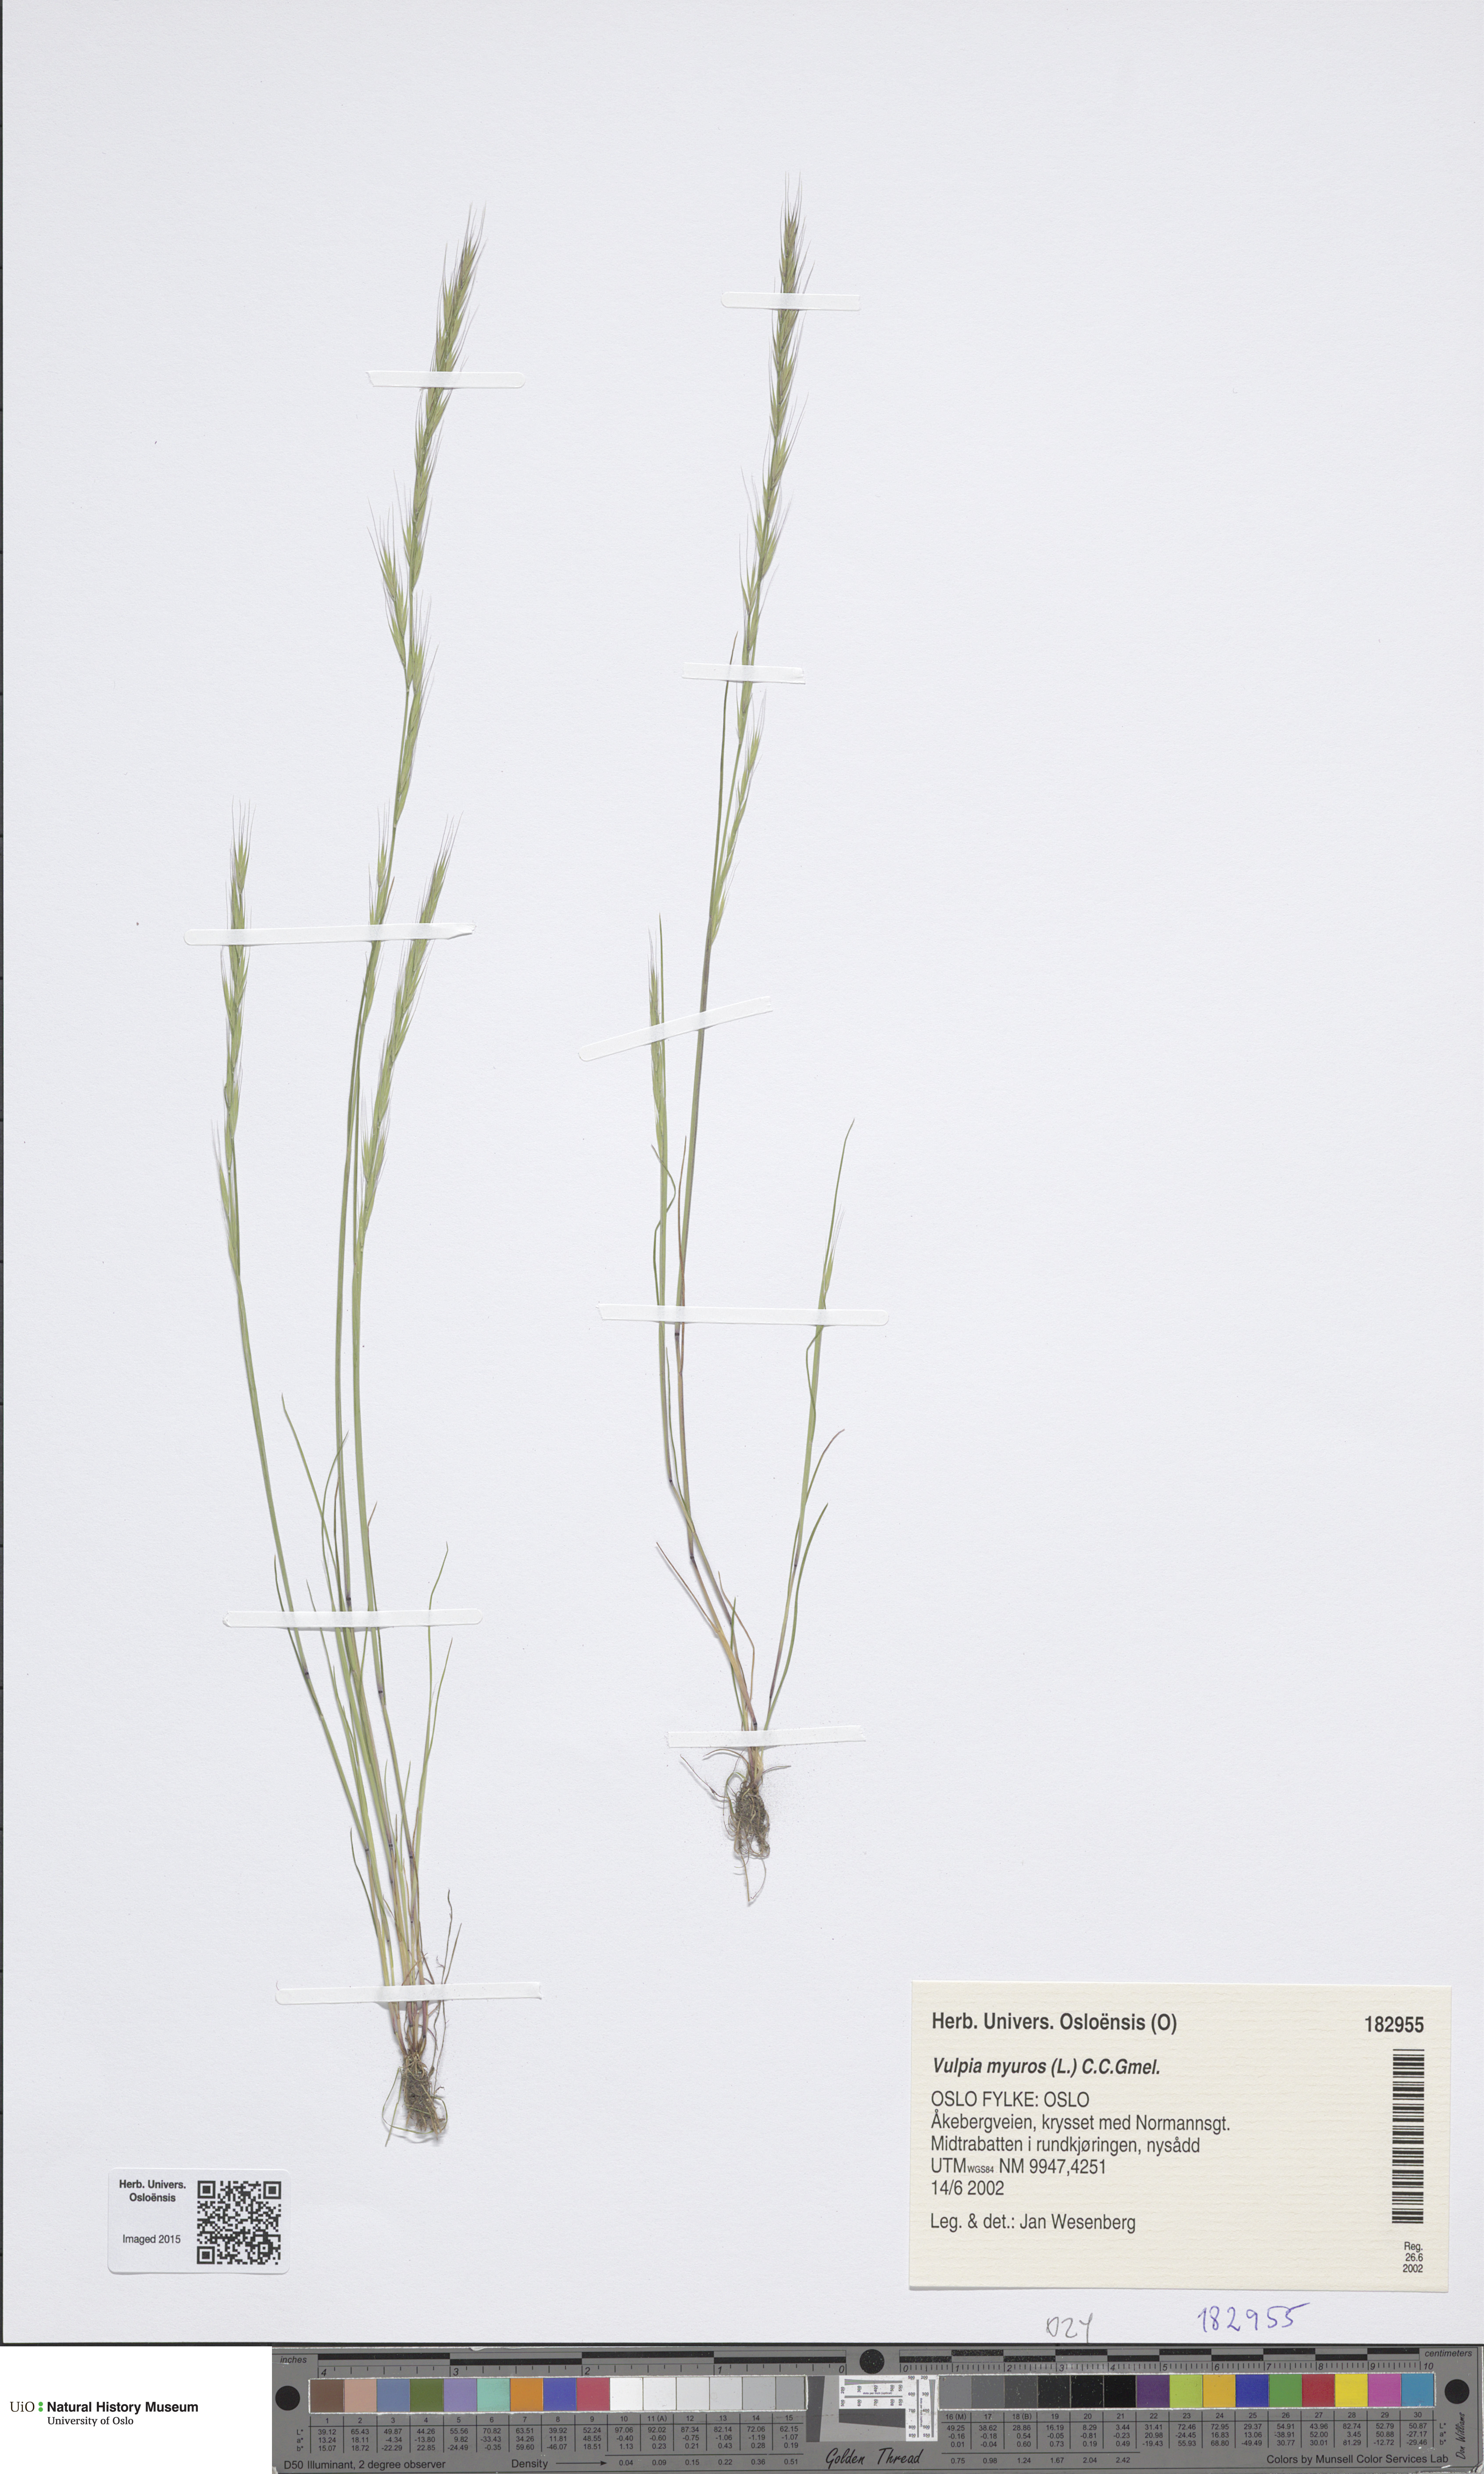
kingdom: Plantae
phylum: Tracheophyta
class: Liliopsida
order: Poales
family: Poaceae
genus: Festuca
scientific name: Festuca myuros
